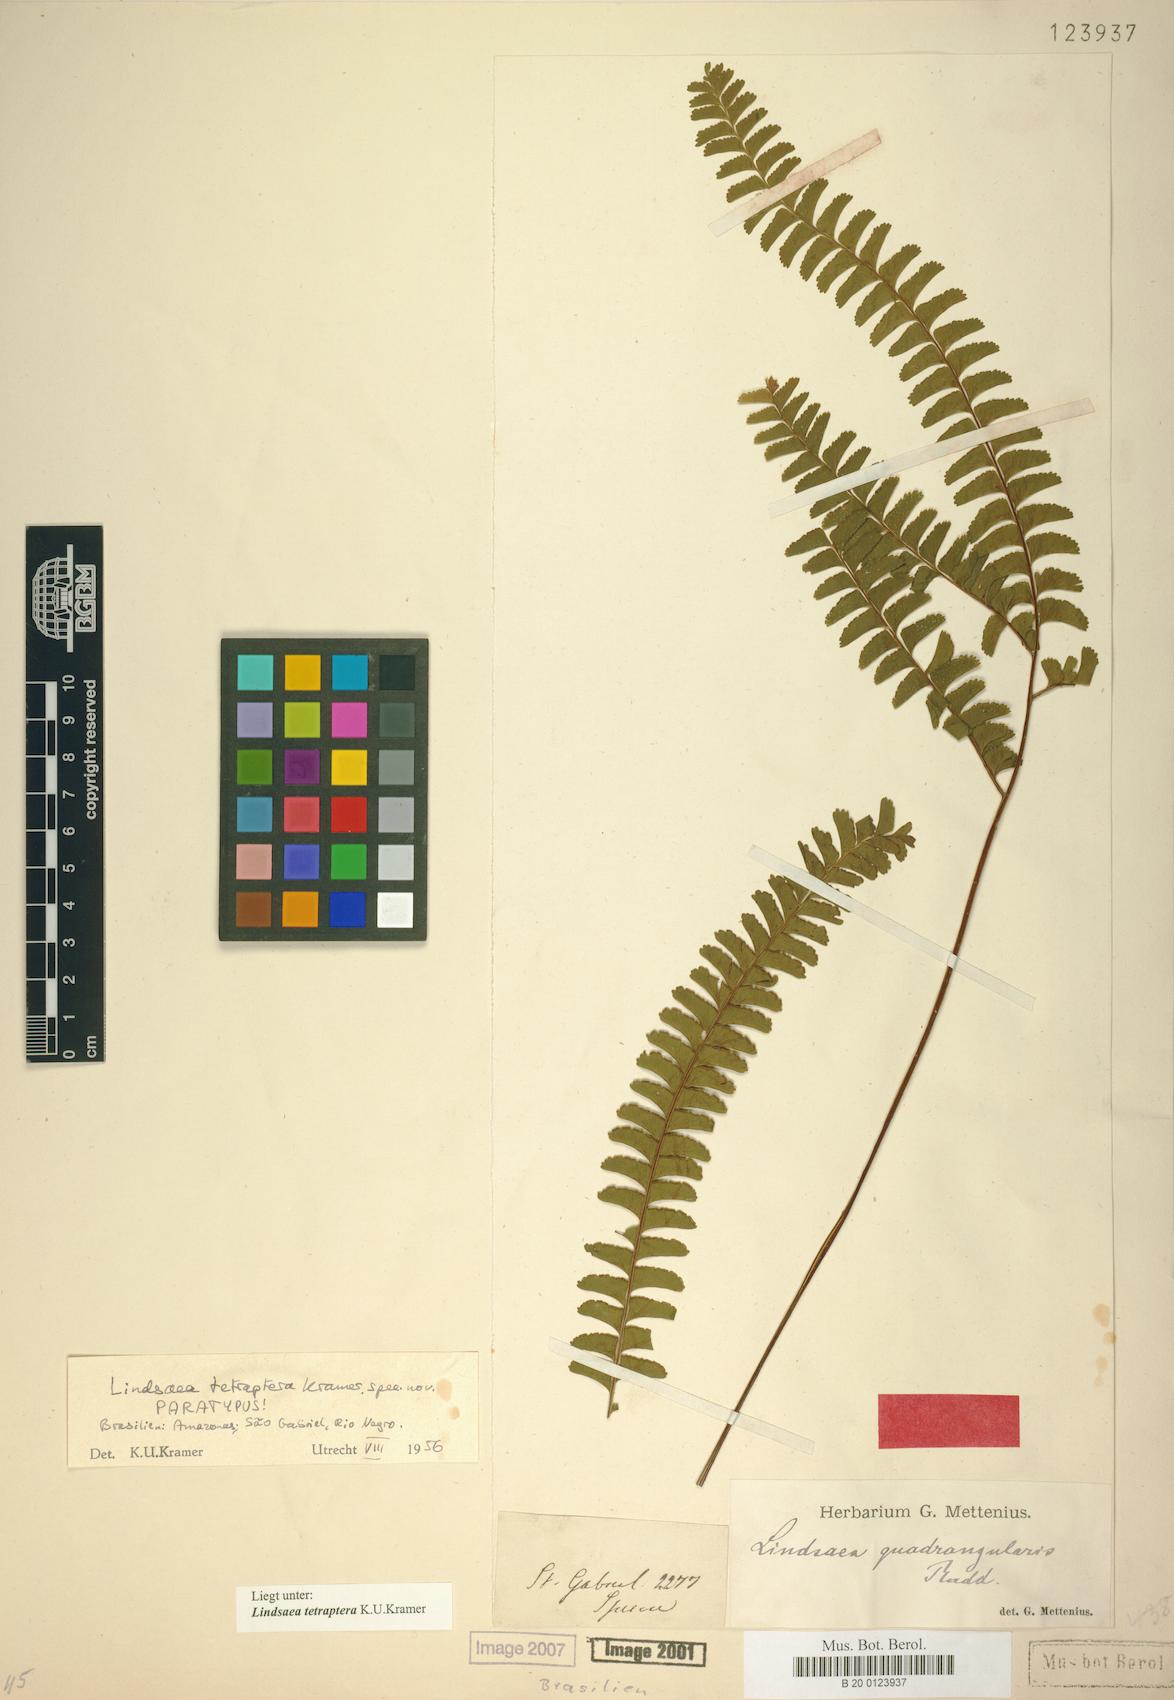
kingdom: Plantae
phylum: Tracheophyta
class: Polypodiopsida
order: Polypodiales
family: Lindsaeaceae
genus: Lindsaea
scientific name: Lindsaea tetraptera
